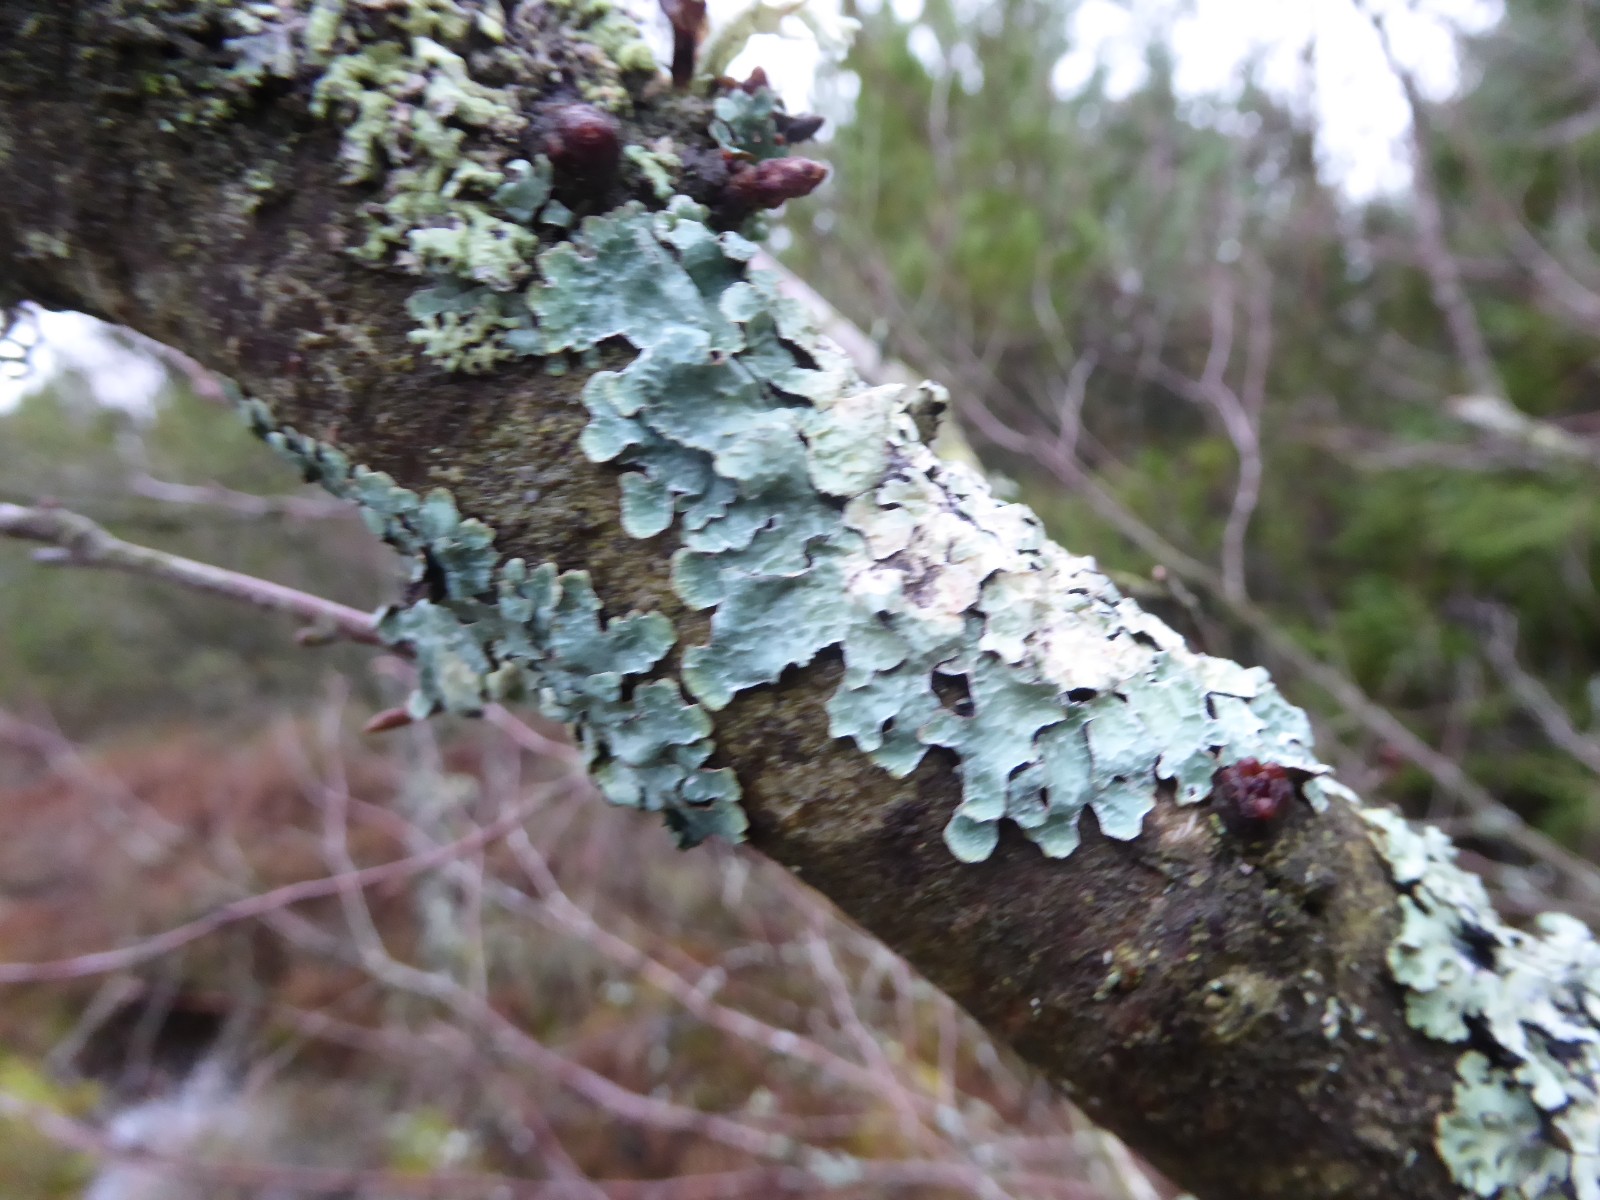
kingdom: Fungi
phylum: Ascomycota
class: Lecanoromycetes
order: Lecanorales
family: Parmeliaceae
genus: Parmelia
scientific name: Parmelia sulcata
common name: rynket skållav
